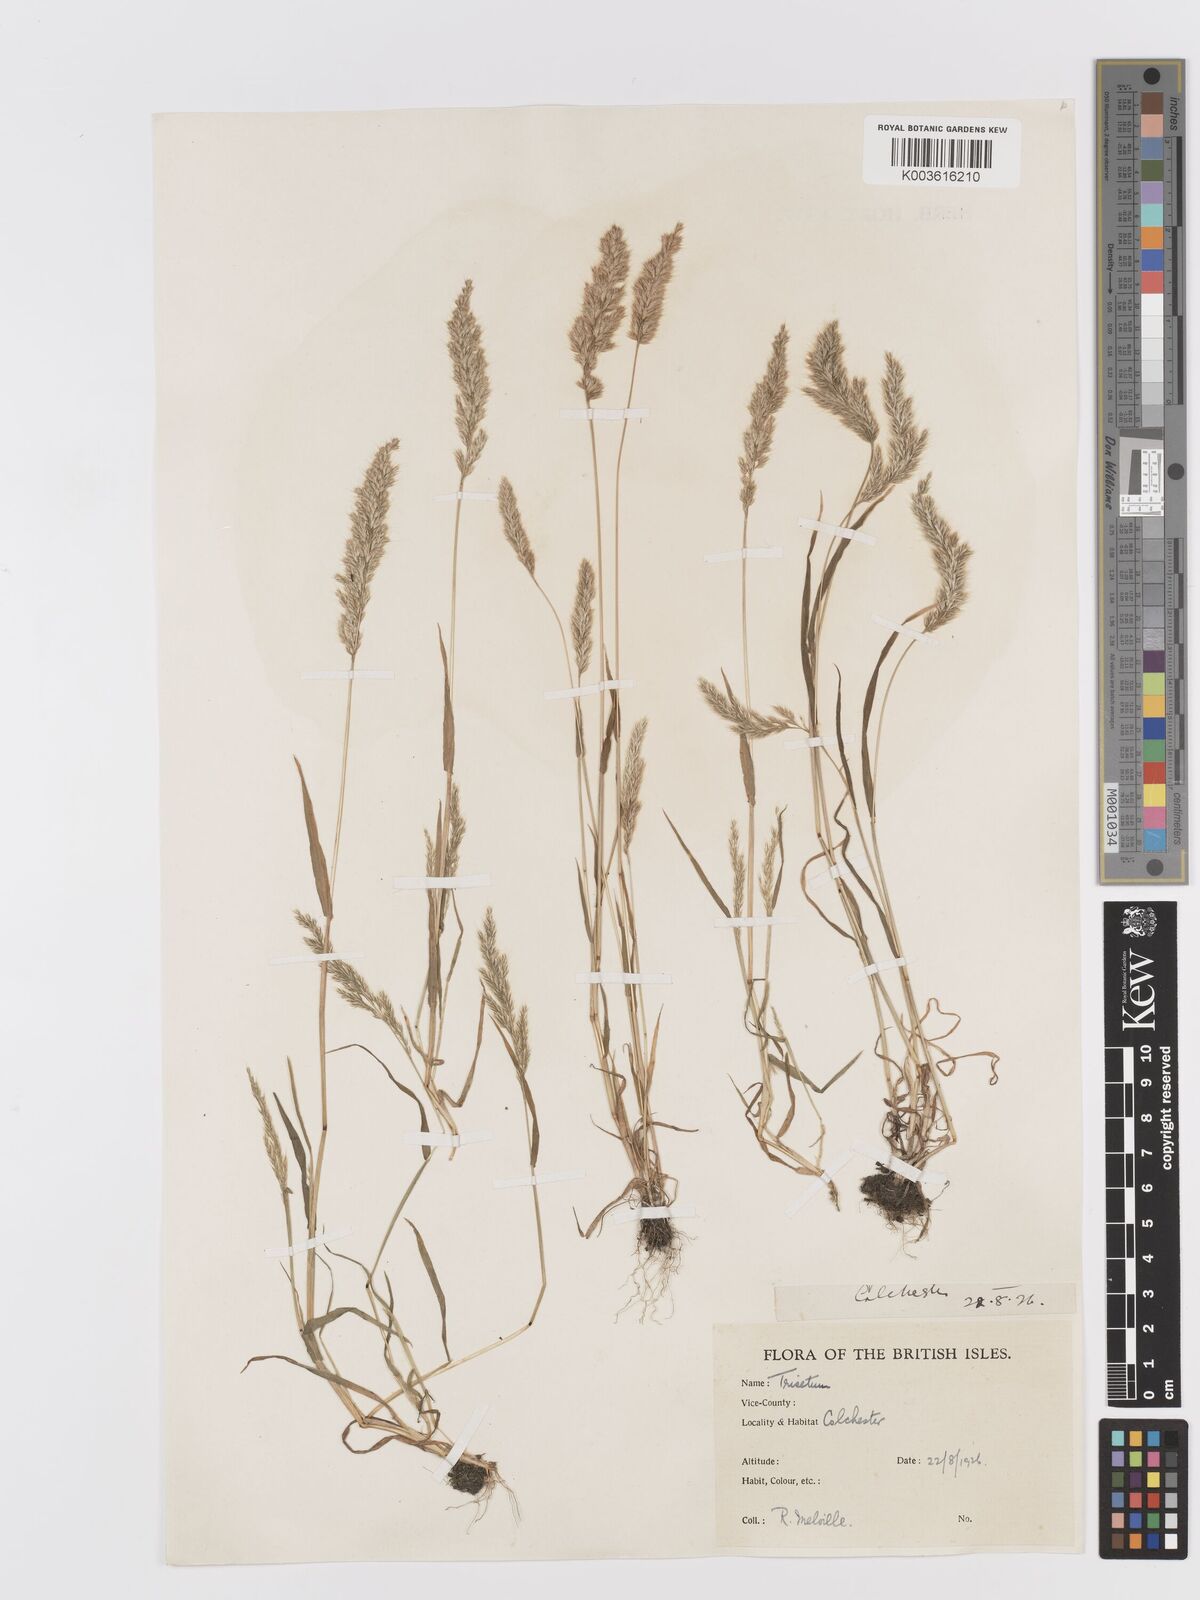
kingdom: Plantae
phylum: Tracheophyta
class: Liliopsida
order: Poales
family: Poaceae
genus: Trisetaria
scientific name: Trisetaria
